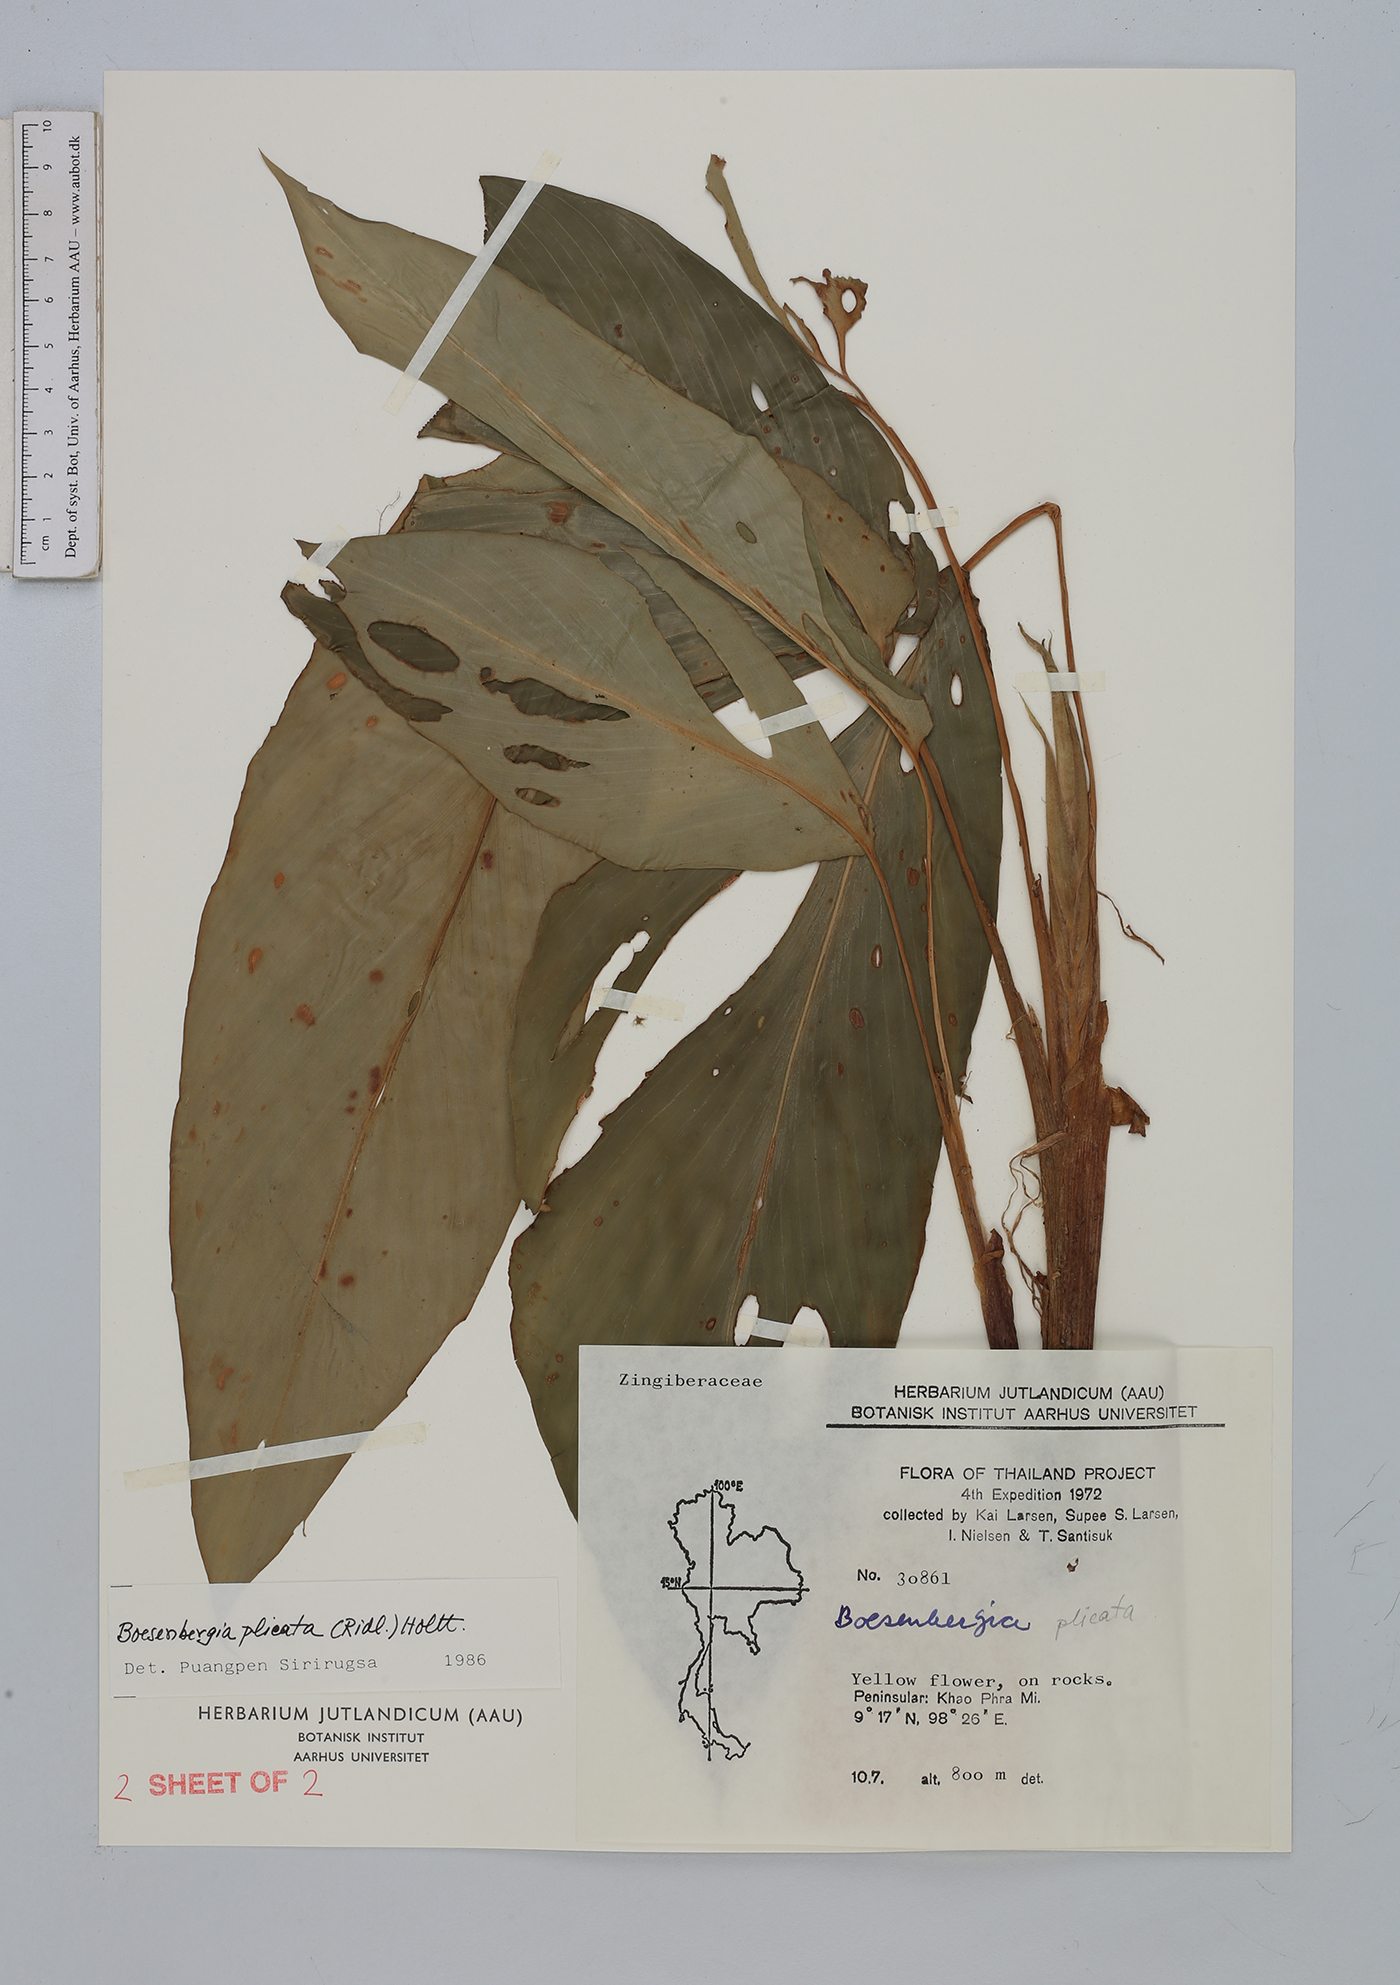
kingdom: Plantae
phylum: Tracheophyta
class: Liliopsida
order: Zingiberales
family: Zingiberaceae
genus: Boesenbergia
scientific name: Boesenbergia plicata
